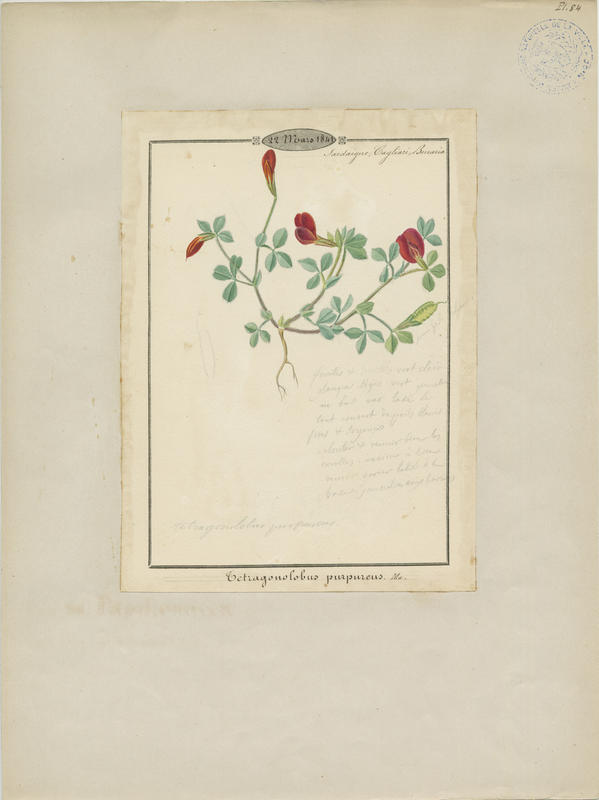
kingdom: Plantae
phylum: Tracheophyta
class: Magnoliopsida
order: Fabales
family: Fabaceae
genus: Lotus
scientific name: Lotus tetragonolobus
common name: Asparagus-pea
